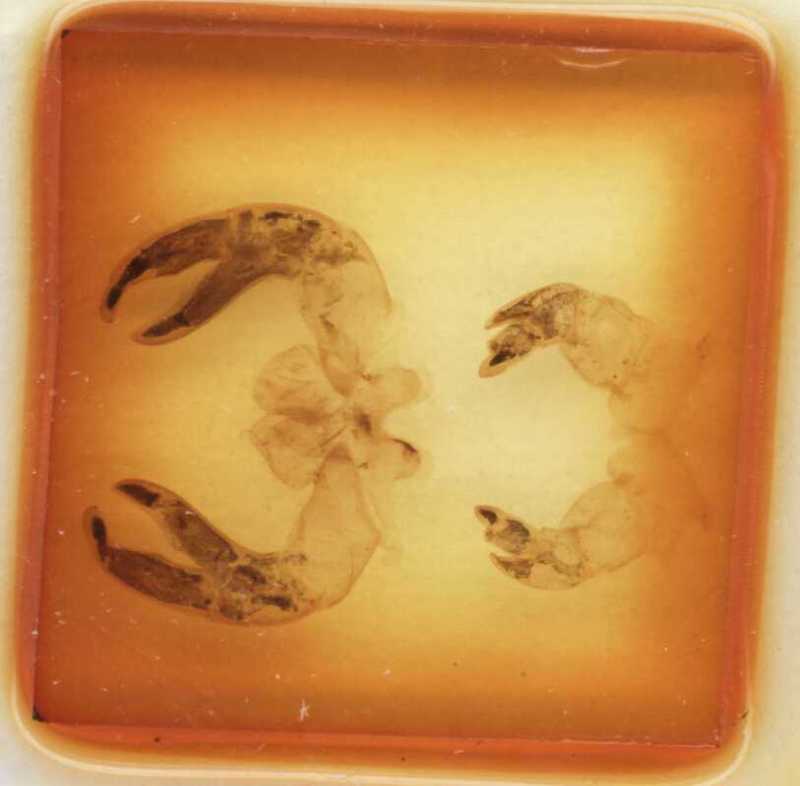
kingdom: Animalia
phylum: Arthropoda
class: Diplopoda
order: Sphaerotheriida
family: Zephroniidae
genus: Sphaeropoeus
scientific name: Sphaeropoeus gisleni
